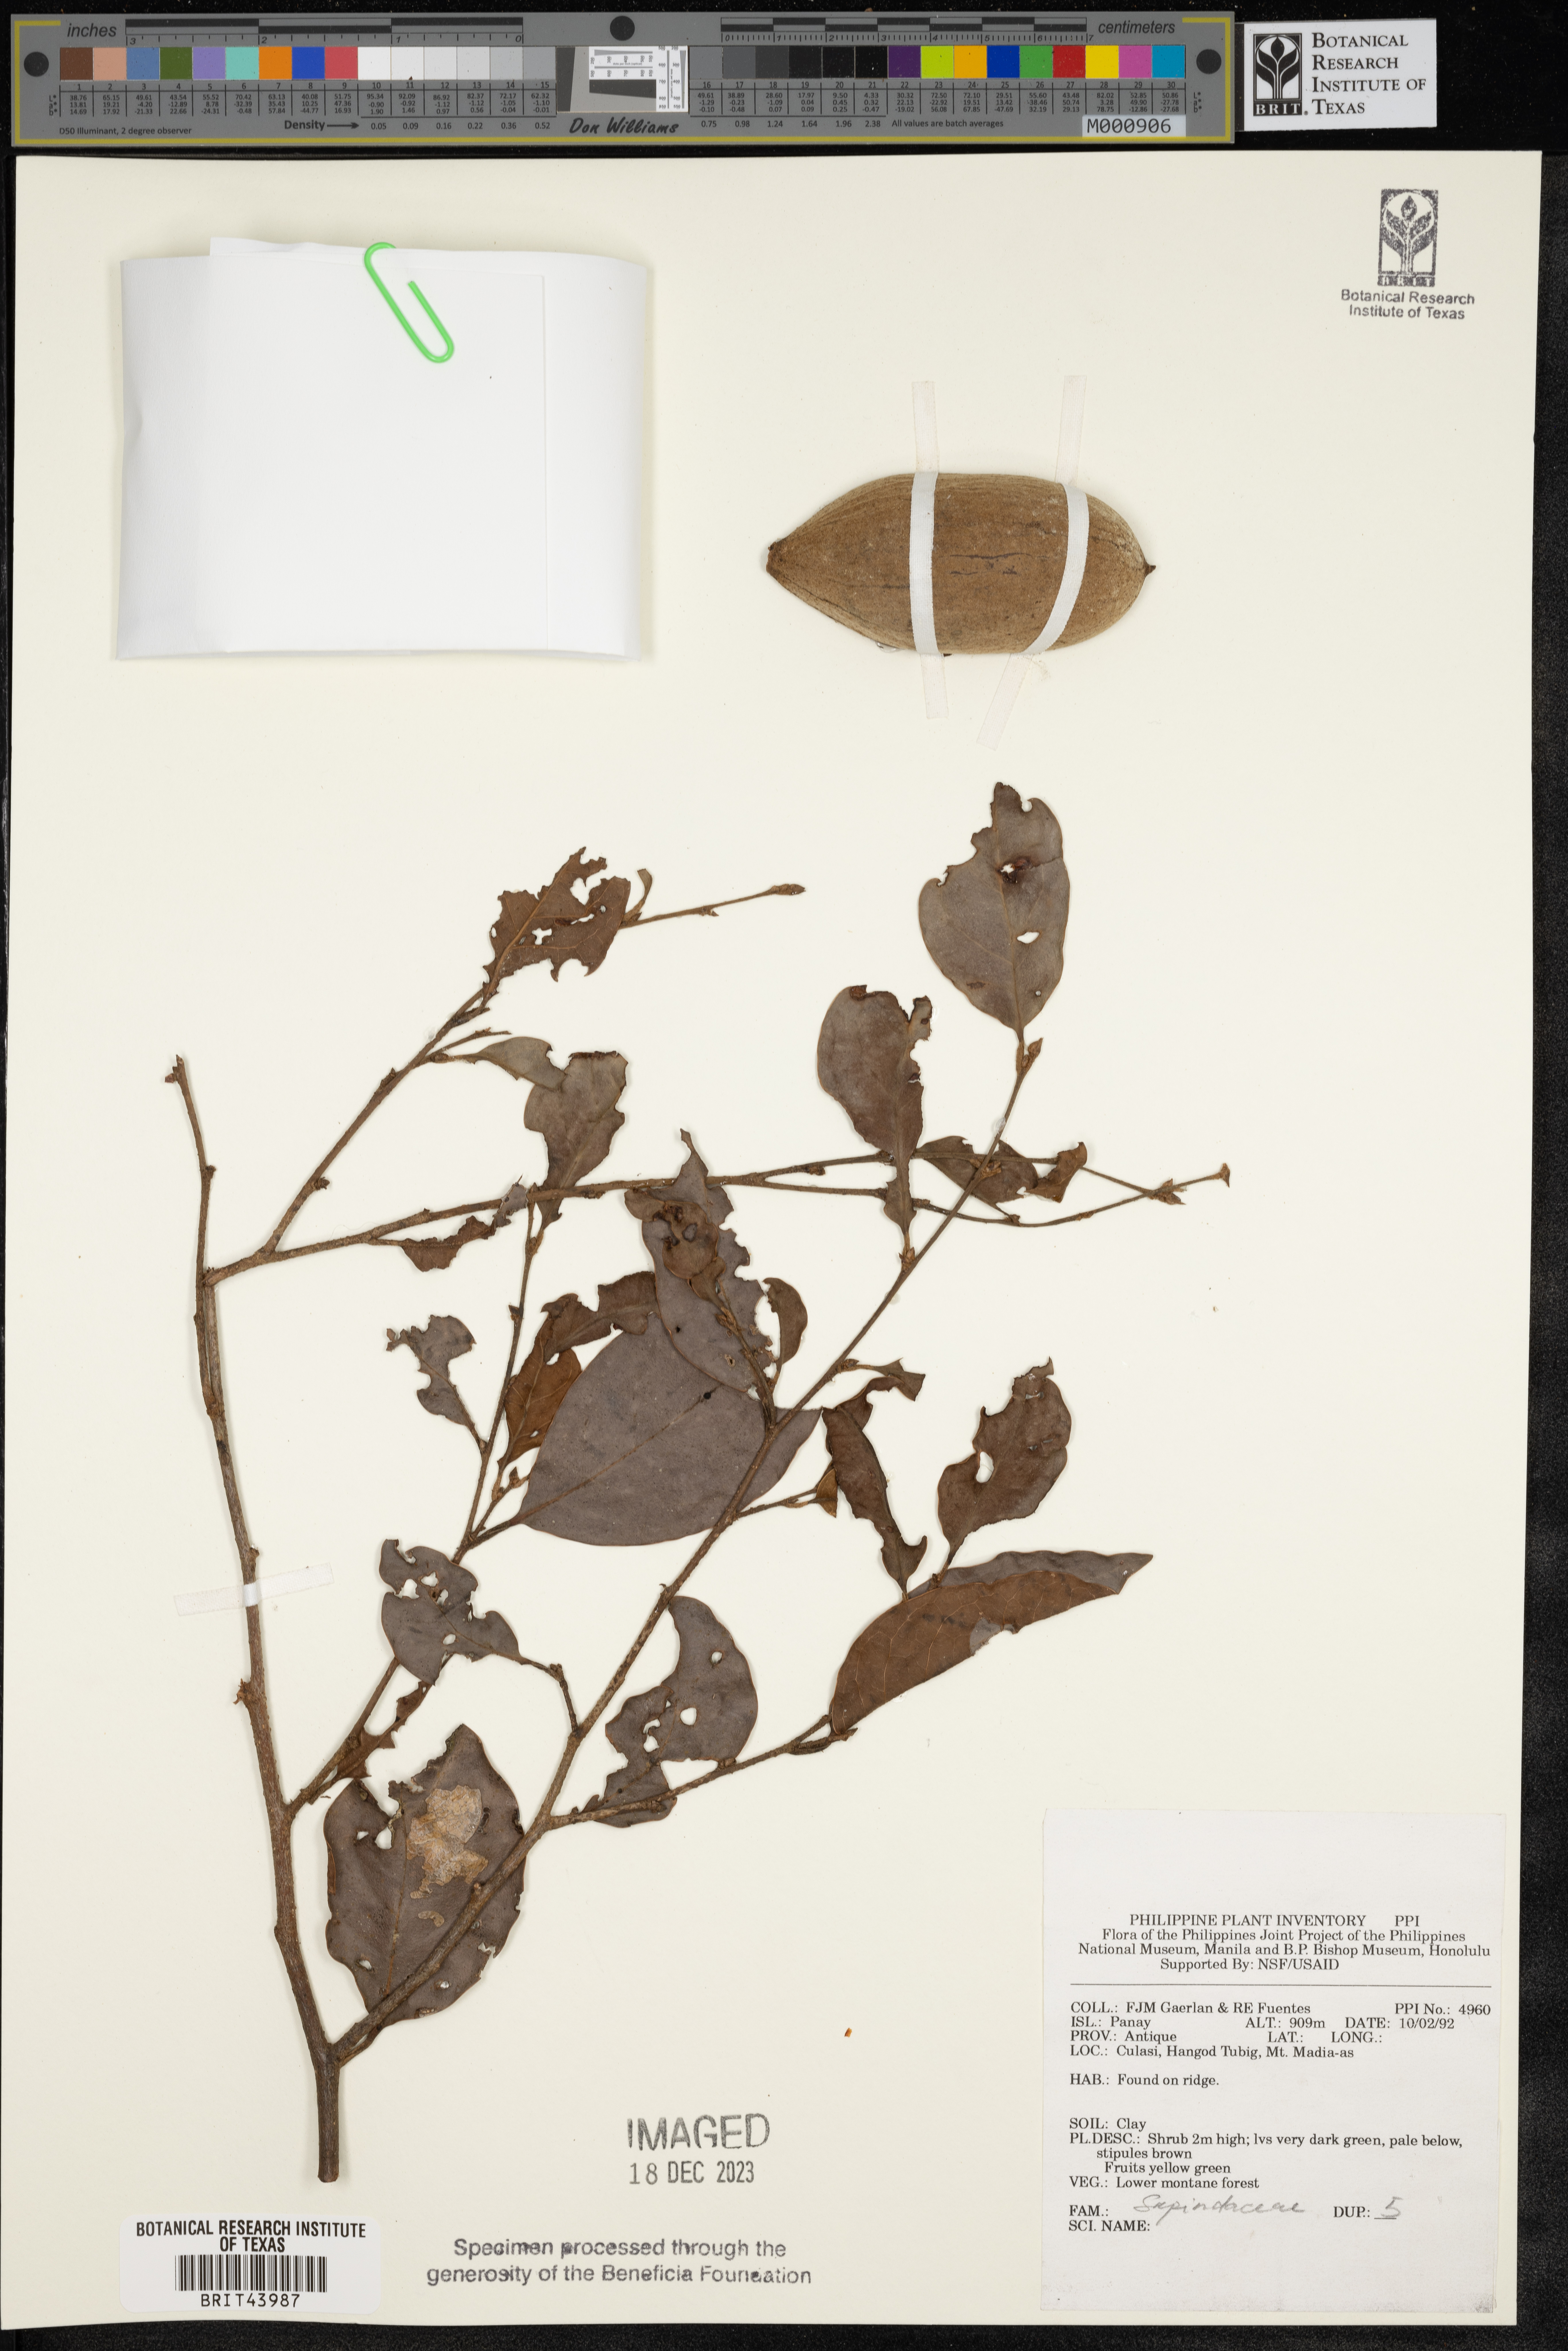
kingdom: Plantae
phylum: Tracheophyta
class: Magnoliopsida
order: Sapindales
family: Sapindaceae
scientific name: Sapindaceae
